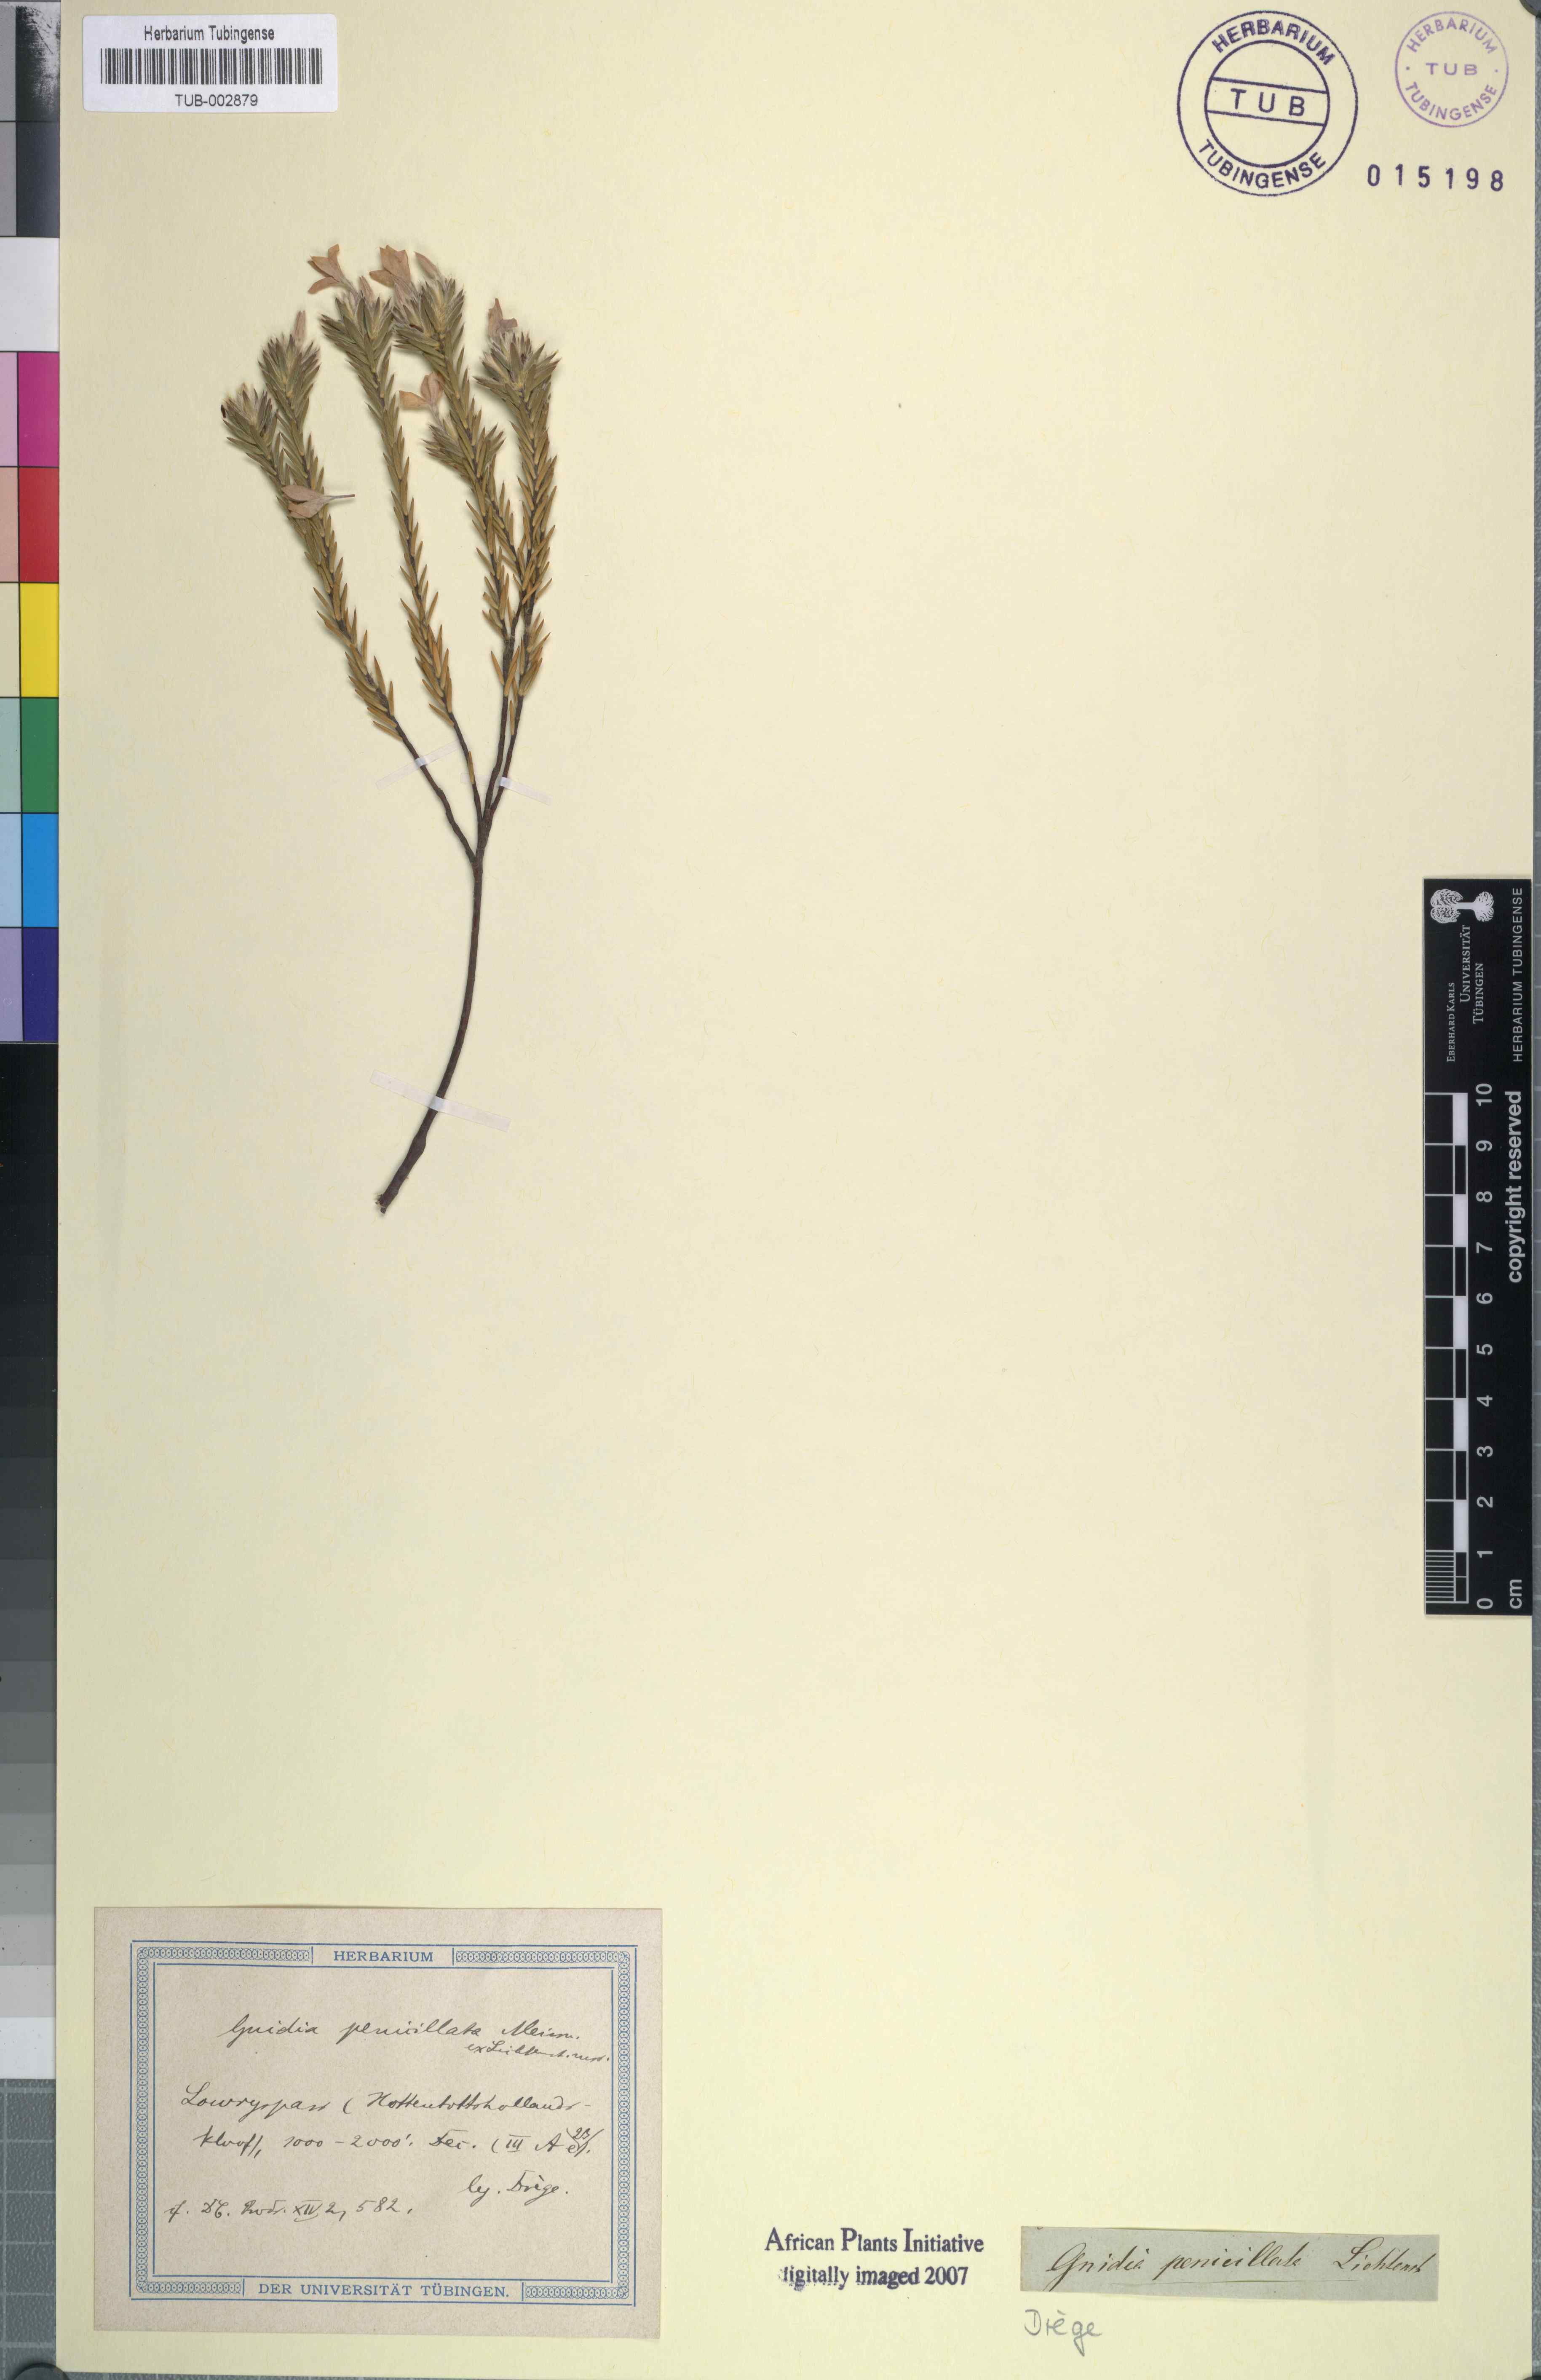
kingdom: Plantae
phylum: Tracheophyta
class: Magnoliopsida
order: Malvales
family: Thymelaeaceae
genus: Gnidia
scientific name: Gnidia penicillata
